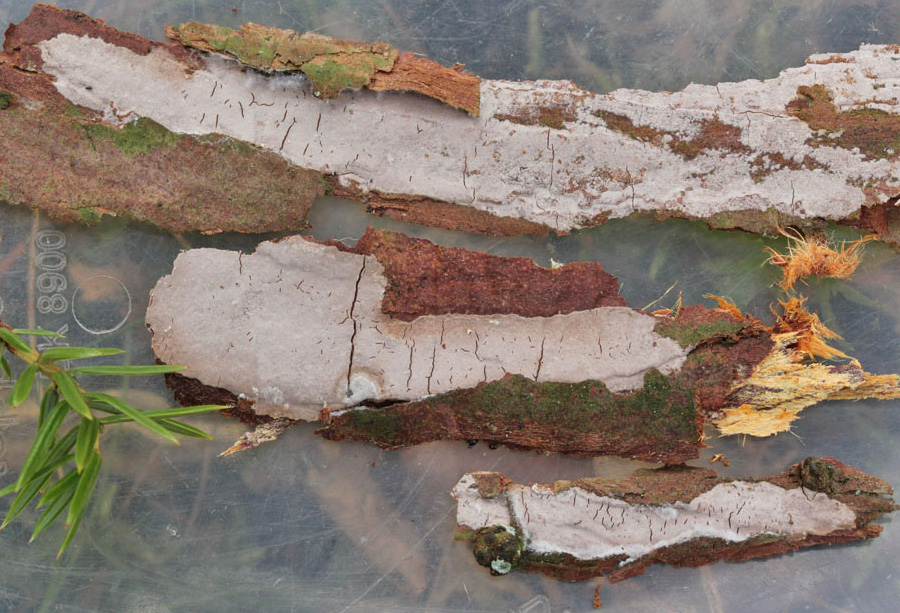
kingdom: Fungi
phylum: Basidiomycota
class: Agaricomycetes
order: Russulales
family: Echinodontiaceae
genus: Amylostereum
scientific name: Amylostereum laevigatum
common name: ene-lædersvamp
